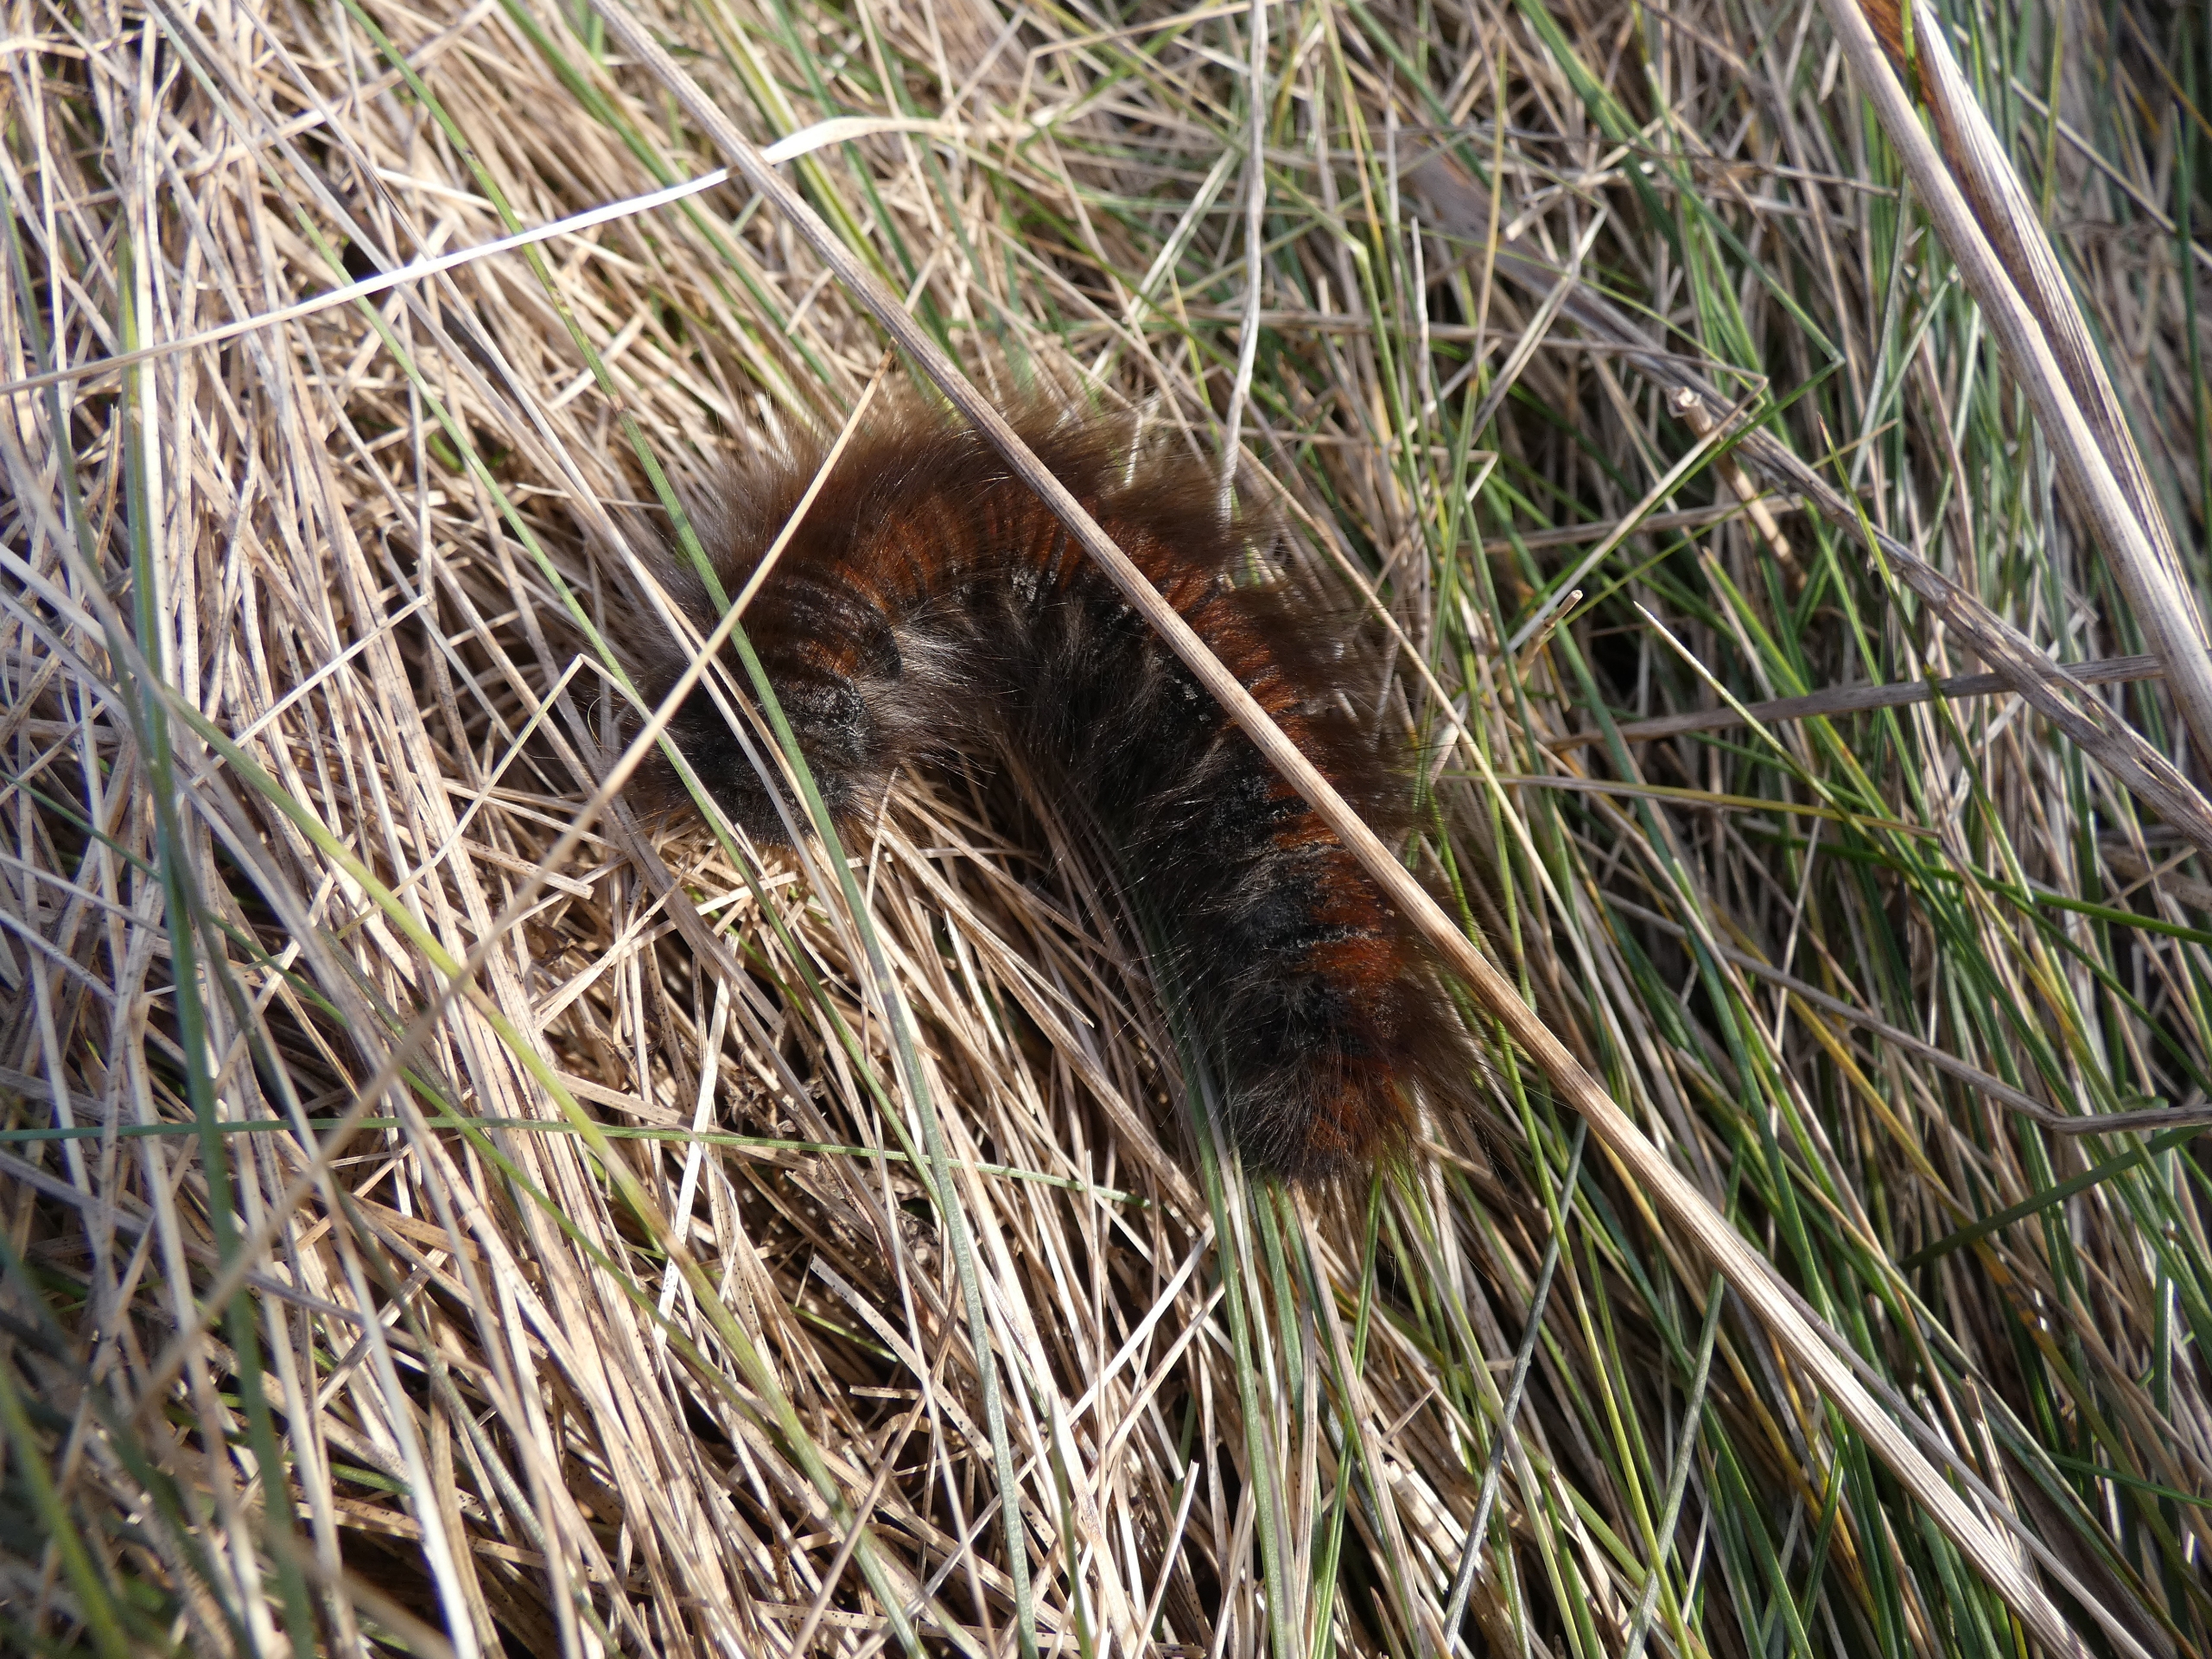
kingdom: Animalia
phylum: Arthropoda
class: Insecta
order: Lepidoptera
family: Lasiocampidae
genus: Macrothylacia
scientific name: Macrothylacia rubi
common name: Brombærspinder
